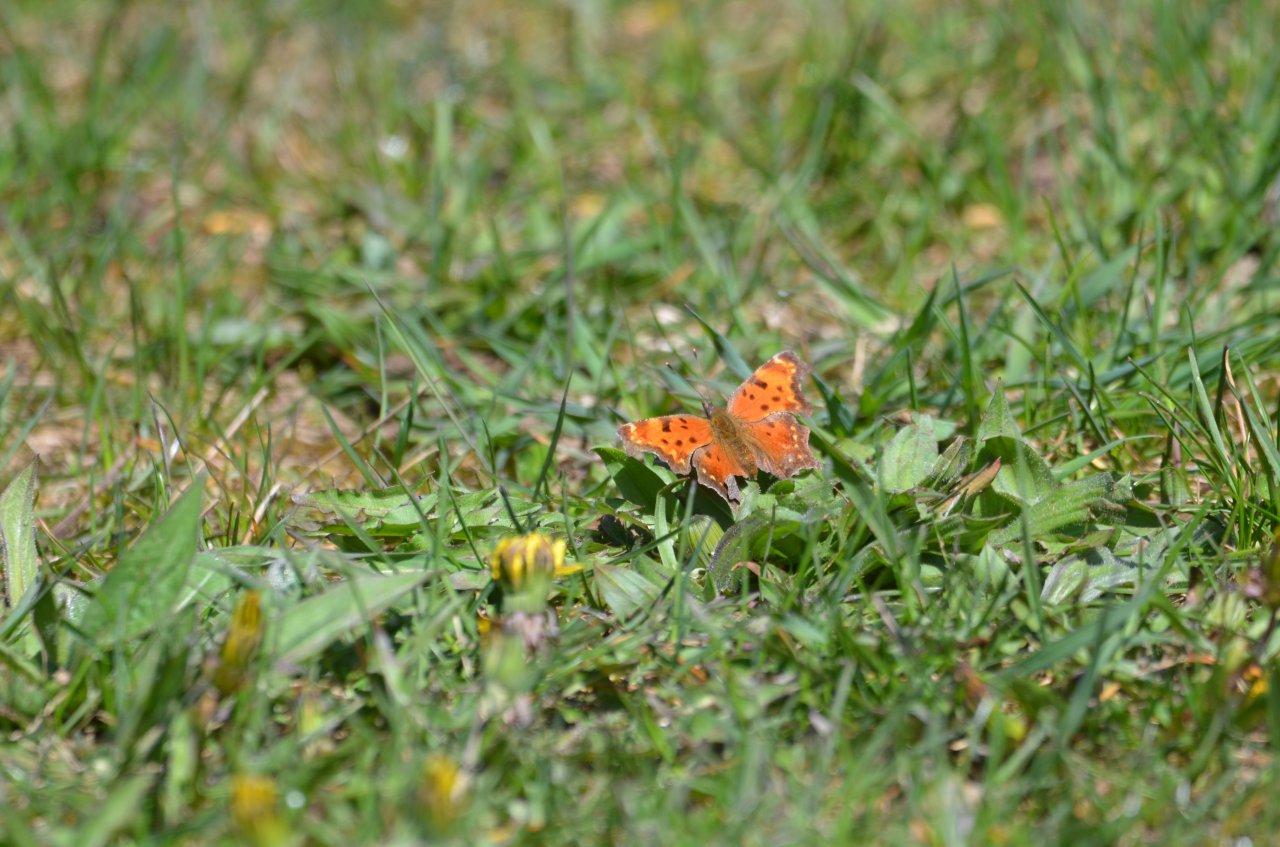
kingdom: Animalia
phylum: Arthropoda
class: Insecta
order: Lepidoptera
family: Nymphalidae
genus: Polygonia
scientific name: Polygonia progne
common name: Gray Comma
